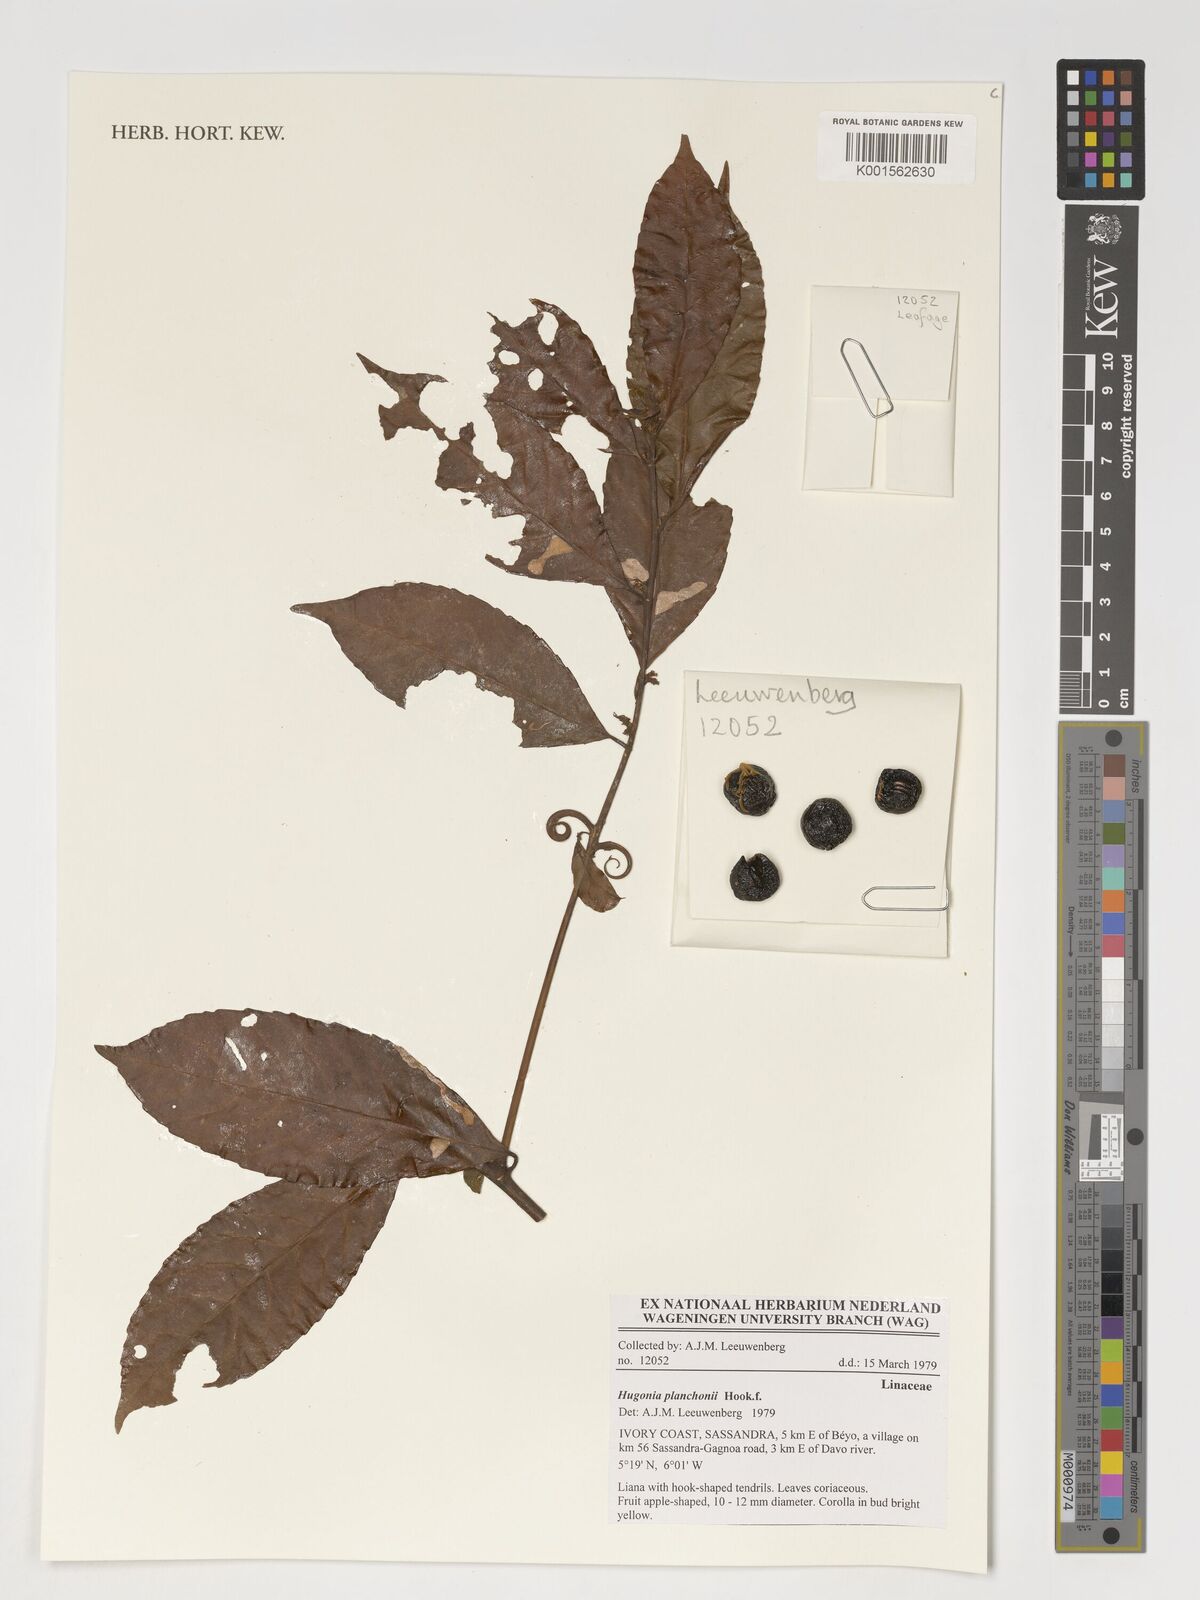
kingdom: Plantae
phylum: Tracheophyta
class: Magnoliopsida
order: Malpighiales
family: Linaceae
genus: Hugonia
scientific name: Hugonia planchonii
